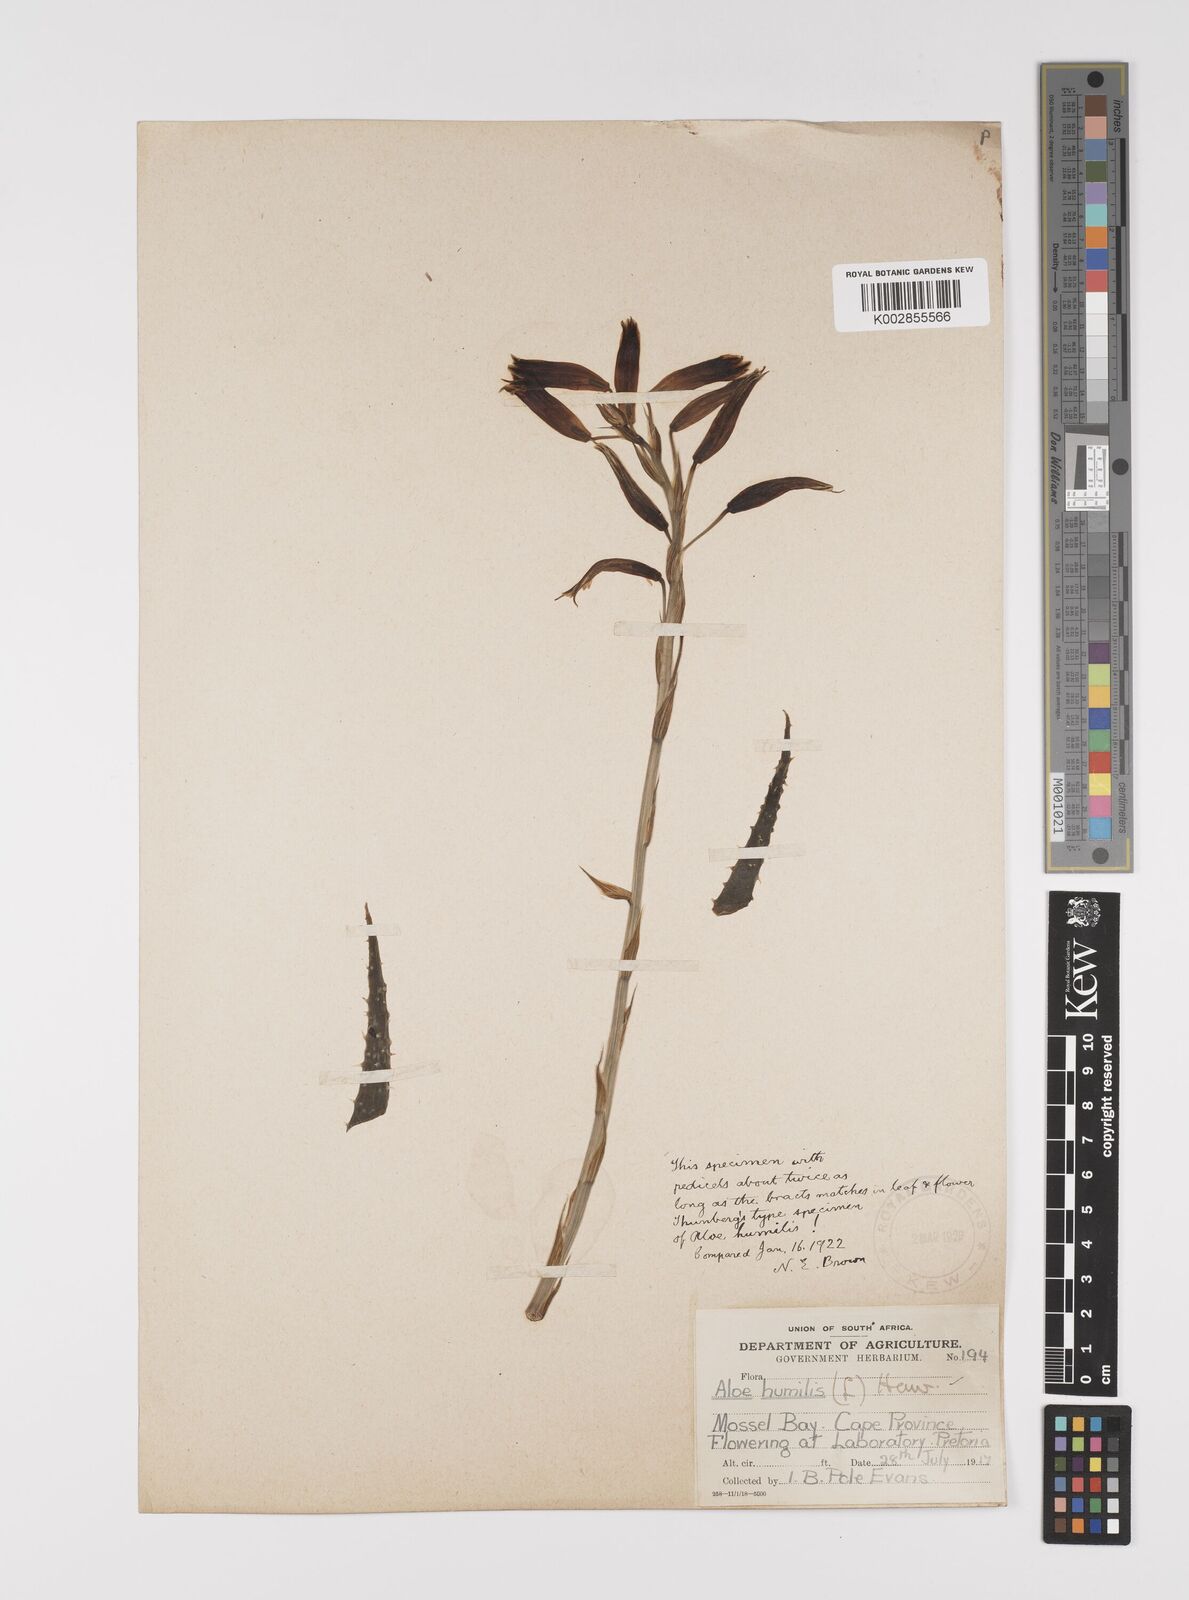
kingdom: Plantae
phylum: Tracheophyta
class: Liliopsida
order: Asparagales
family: Asphodelaceae
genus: Aloe
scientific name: Aloe humilis
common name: Dwarf hedgehog aloe
